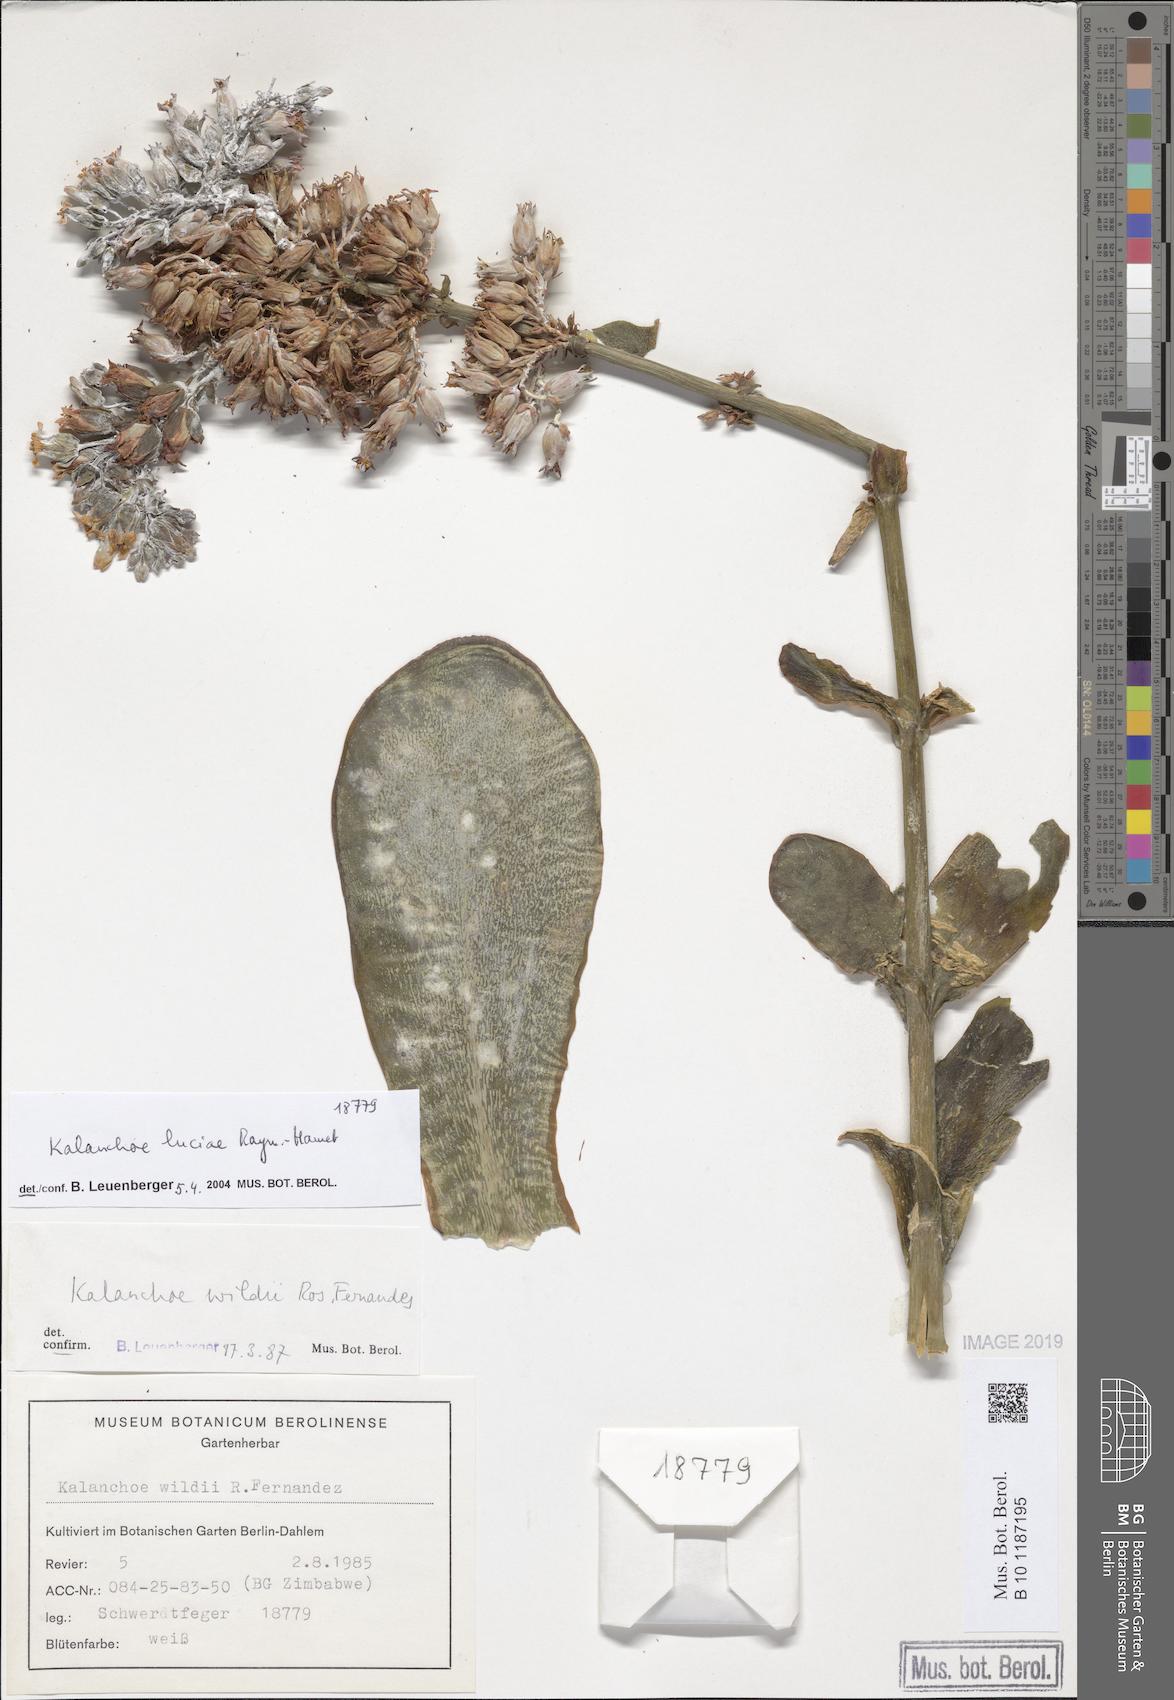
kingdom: Plantae
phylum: Tracheophyta
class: Magnoliopsida
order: Saxifragales
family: Crassulaceae
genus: Kalanchoe
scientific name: Kalanchoe luciae
